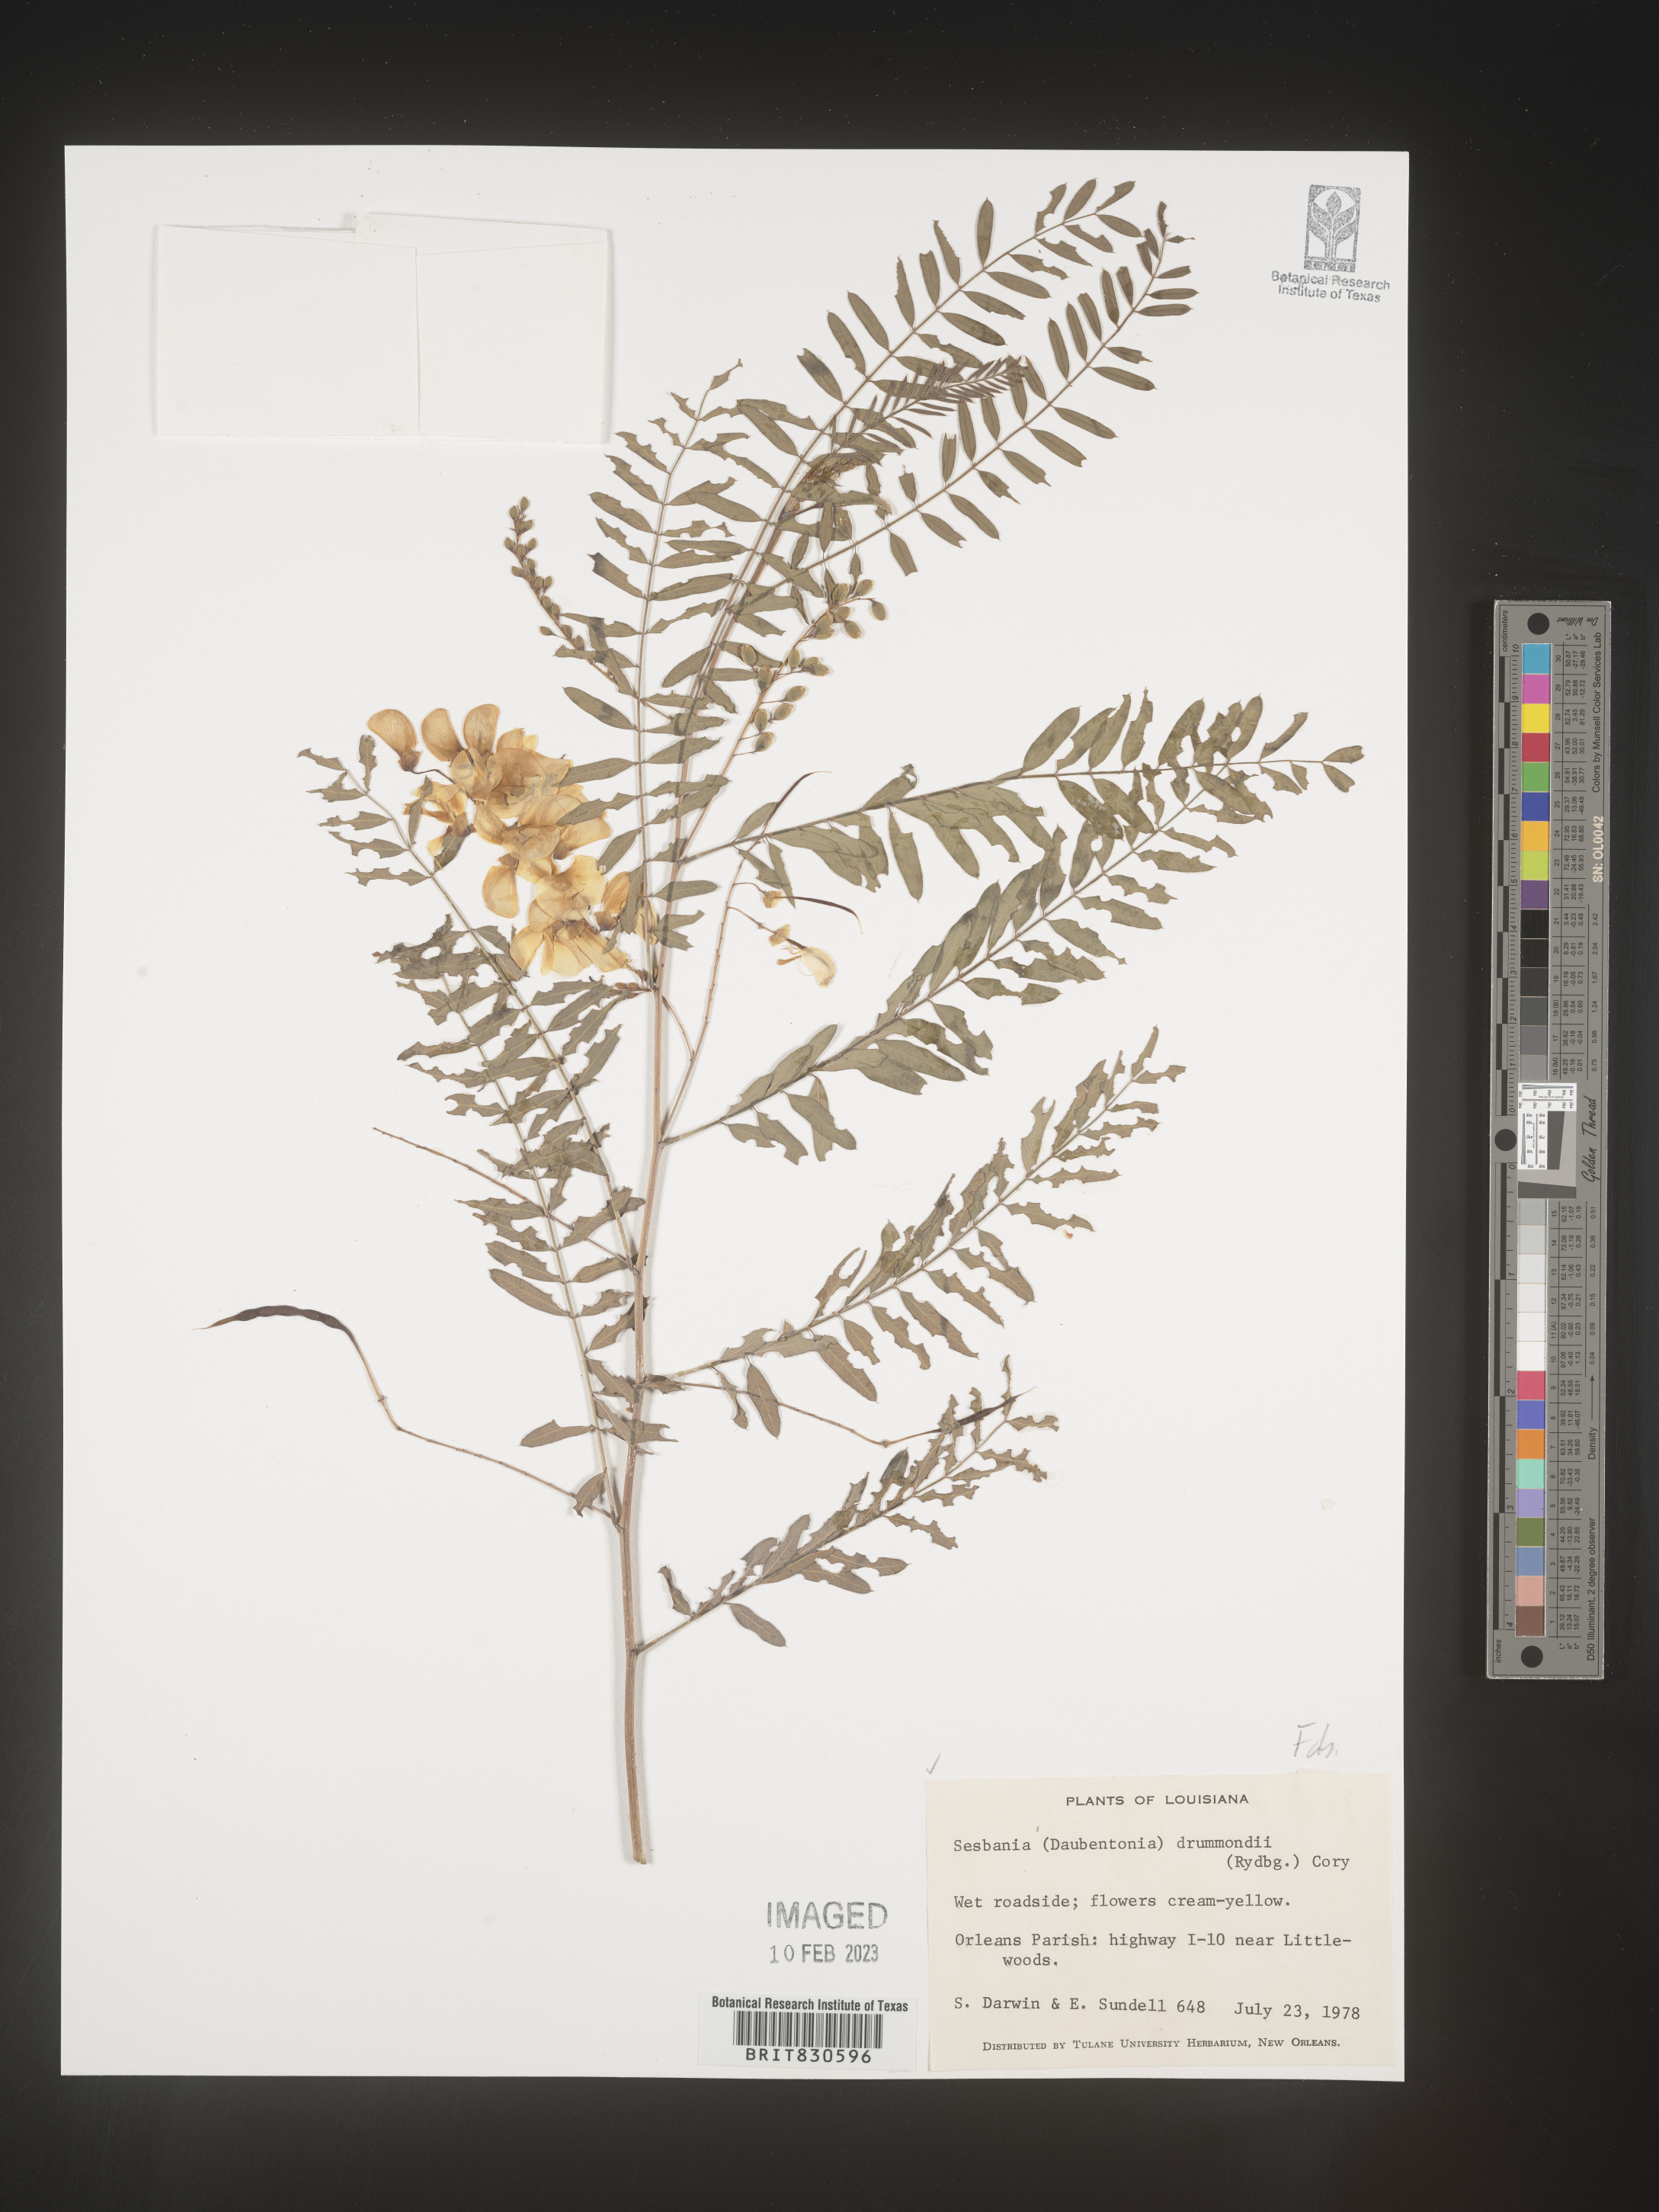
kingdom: Plantae
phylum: Tracheophyta
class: Magnoliopsida
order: Fabales
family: Fabaceae
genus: Sesbania
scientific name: Sesbania drummondii
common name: Poison-bean
